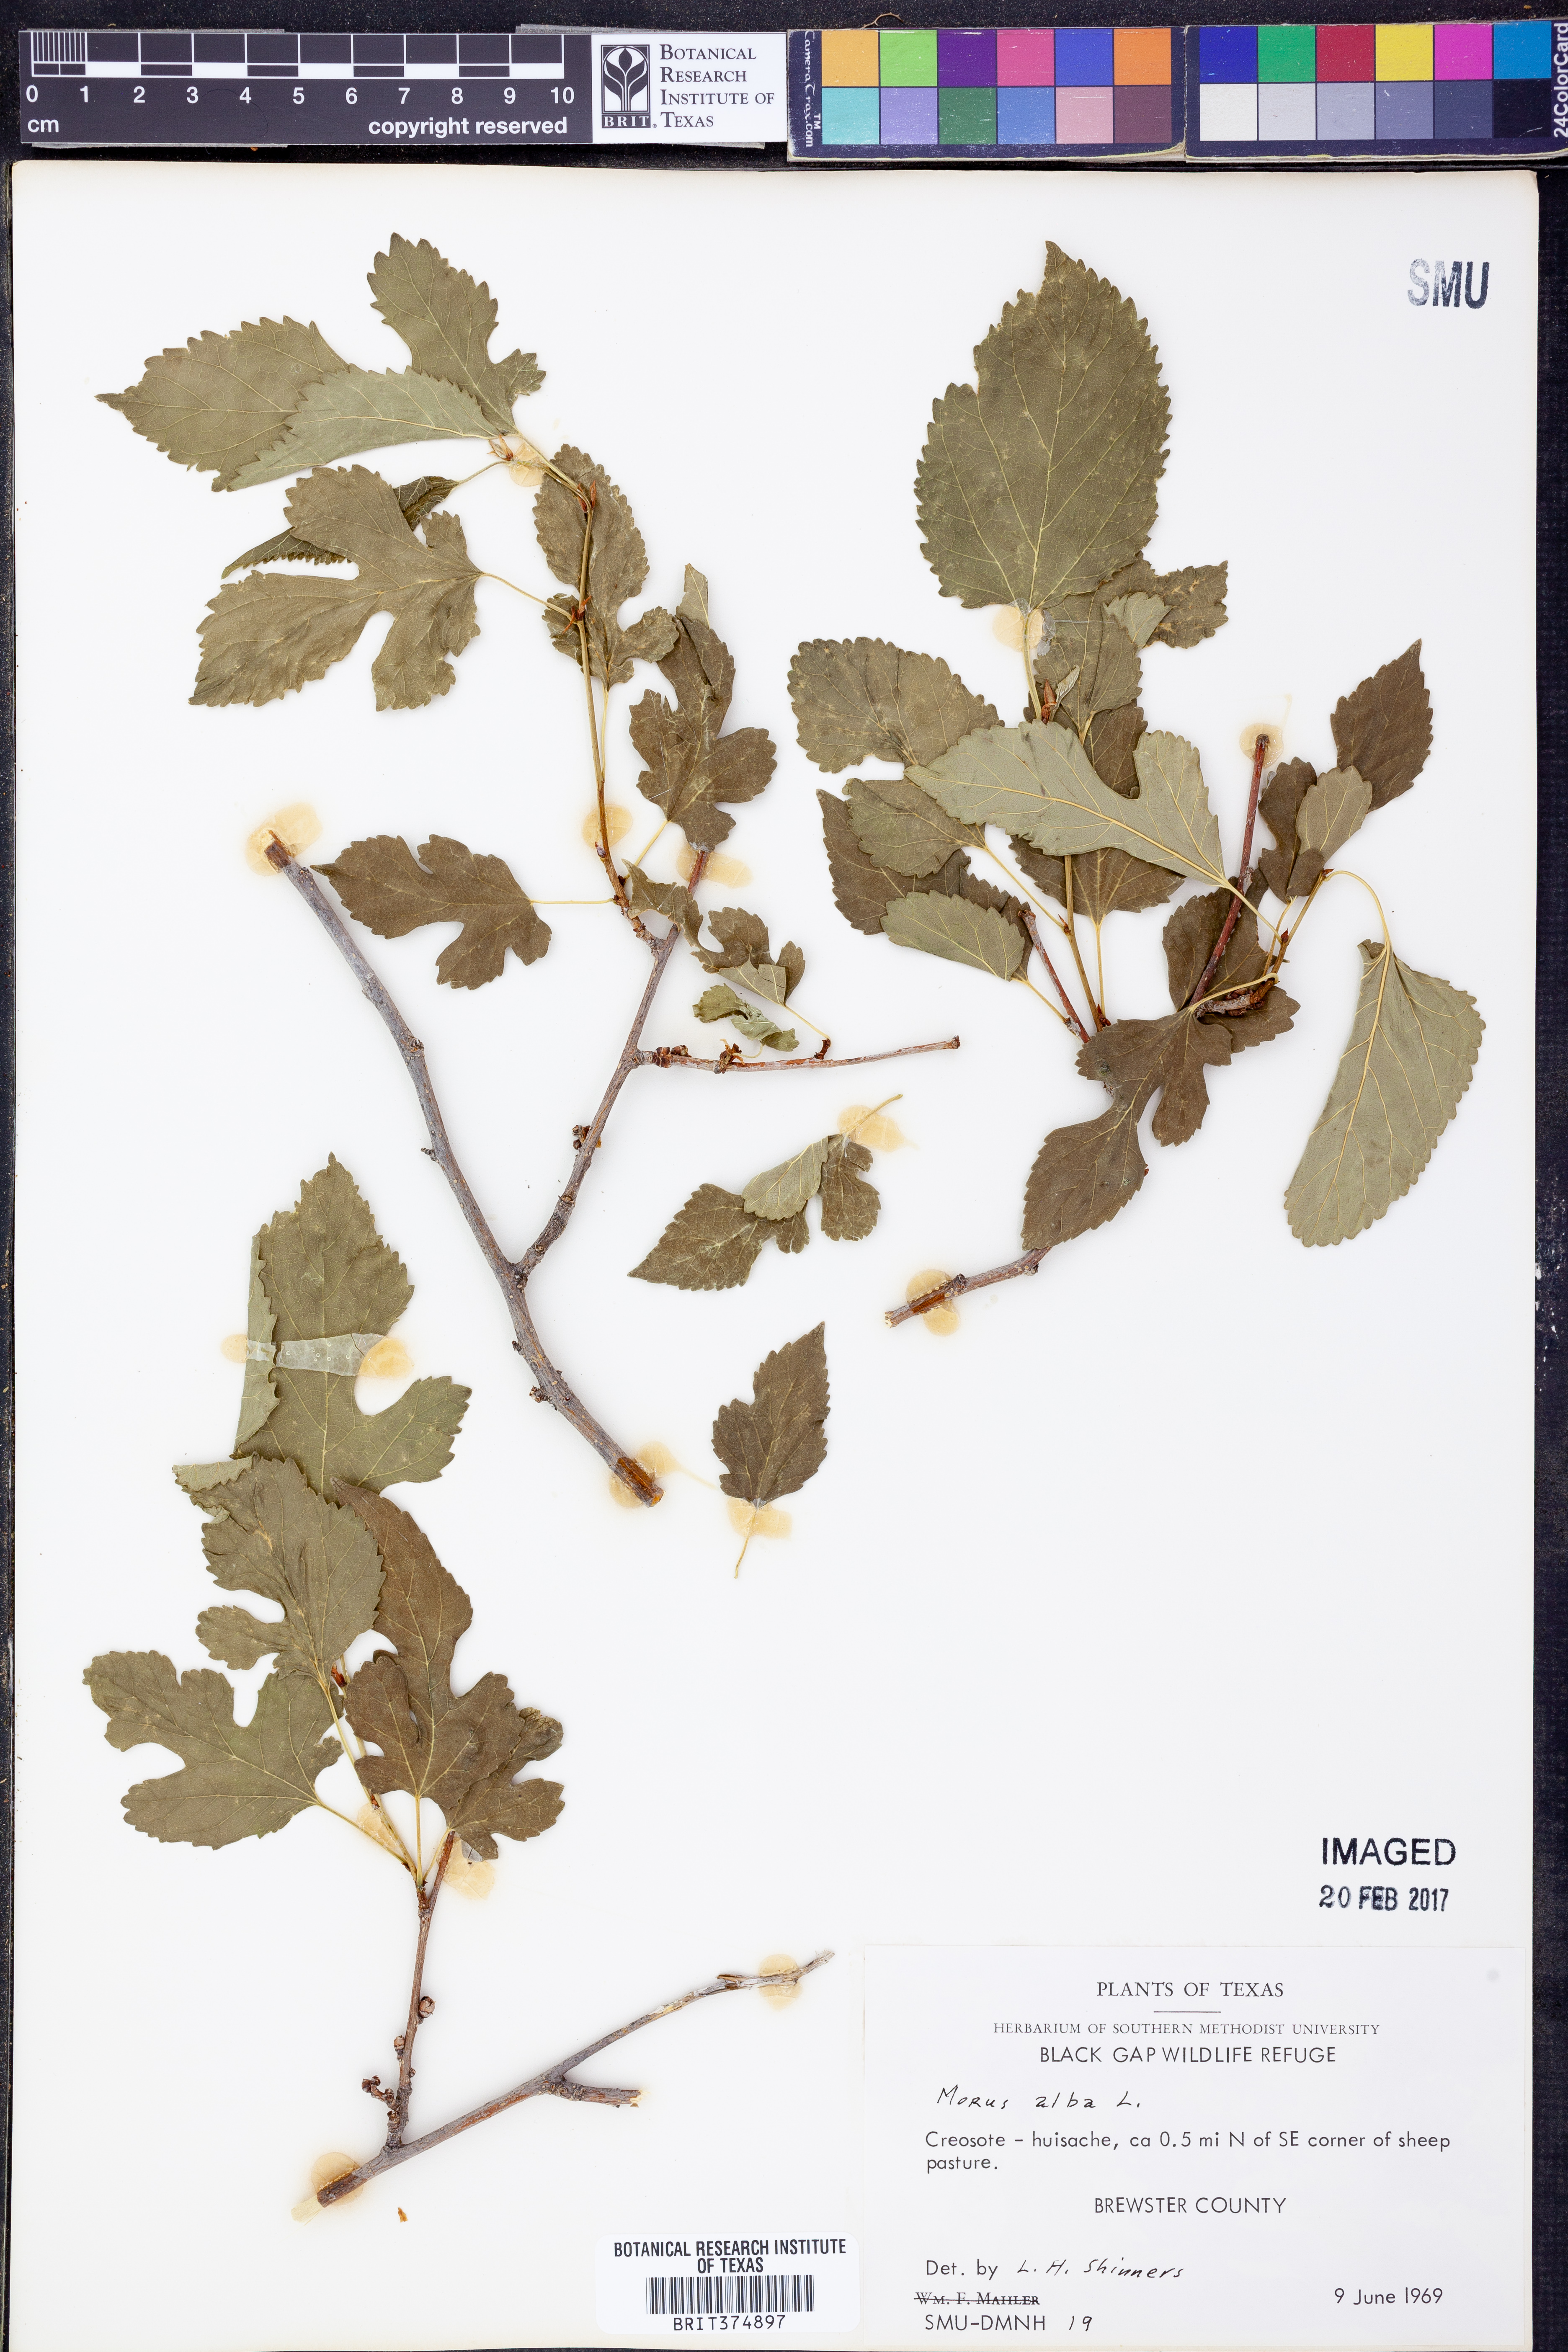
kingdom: Plantae
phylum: Tracheophyta
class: Magnoliopsida
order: Rosales
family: Moraceae
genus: Morus
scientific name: Morus alba
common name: White mulberry
